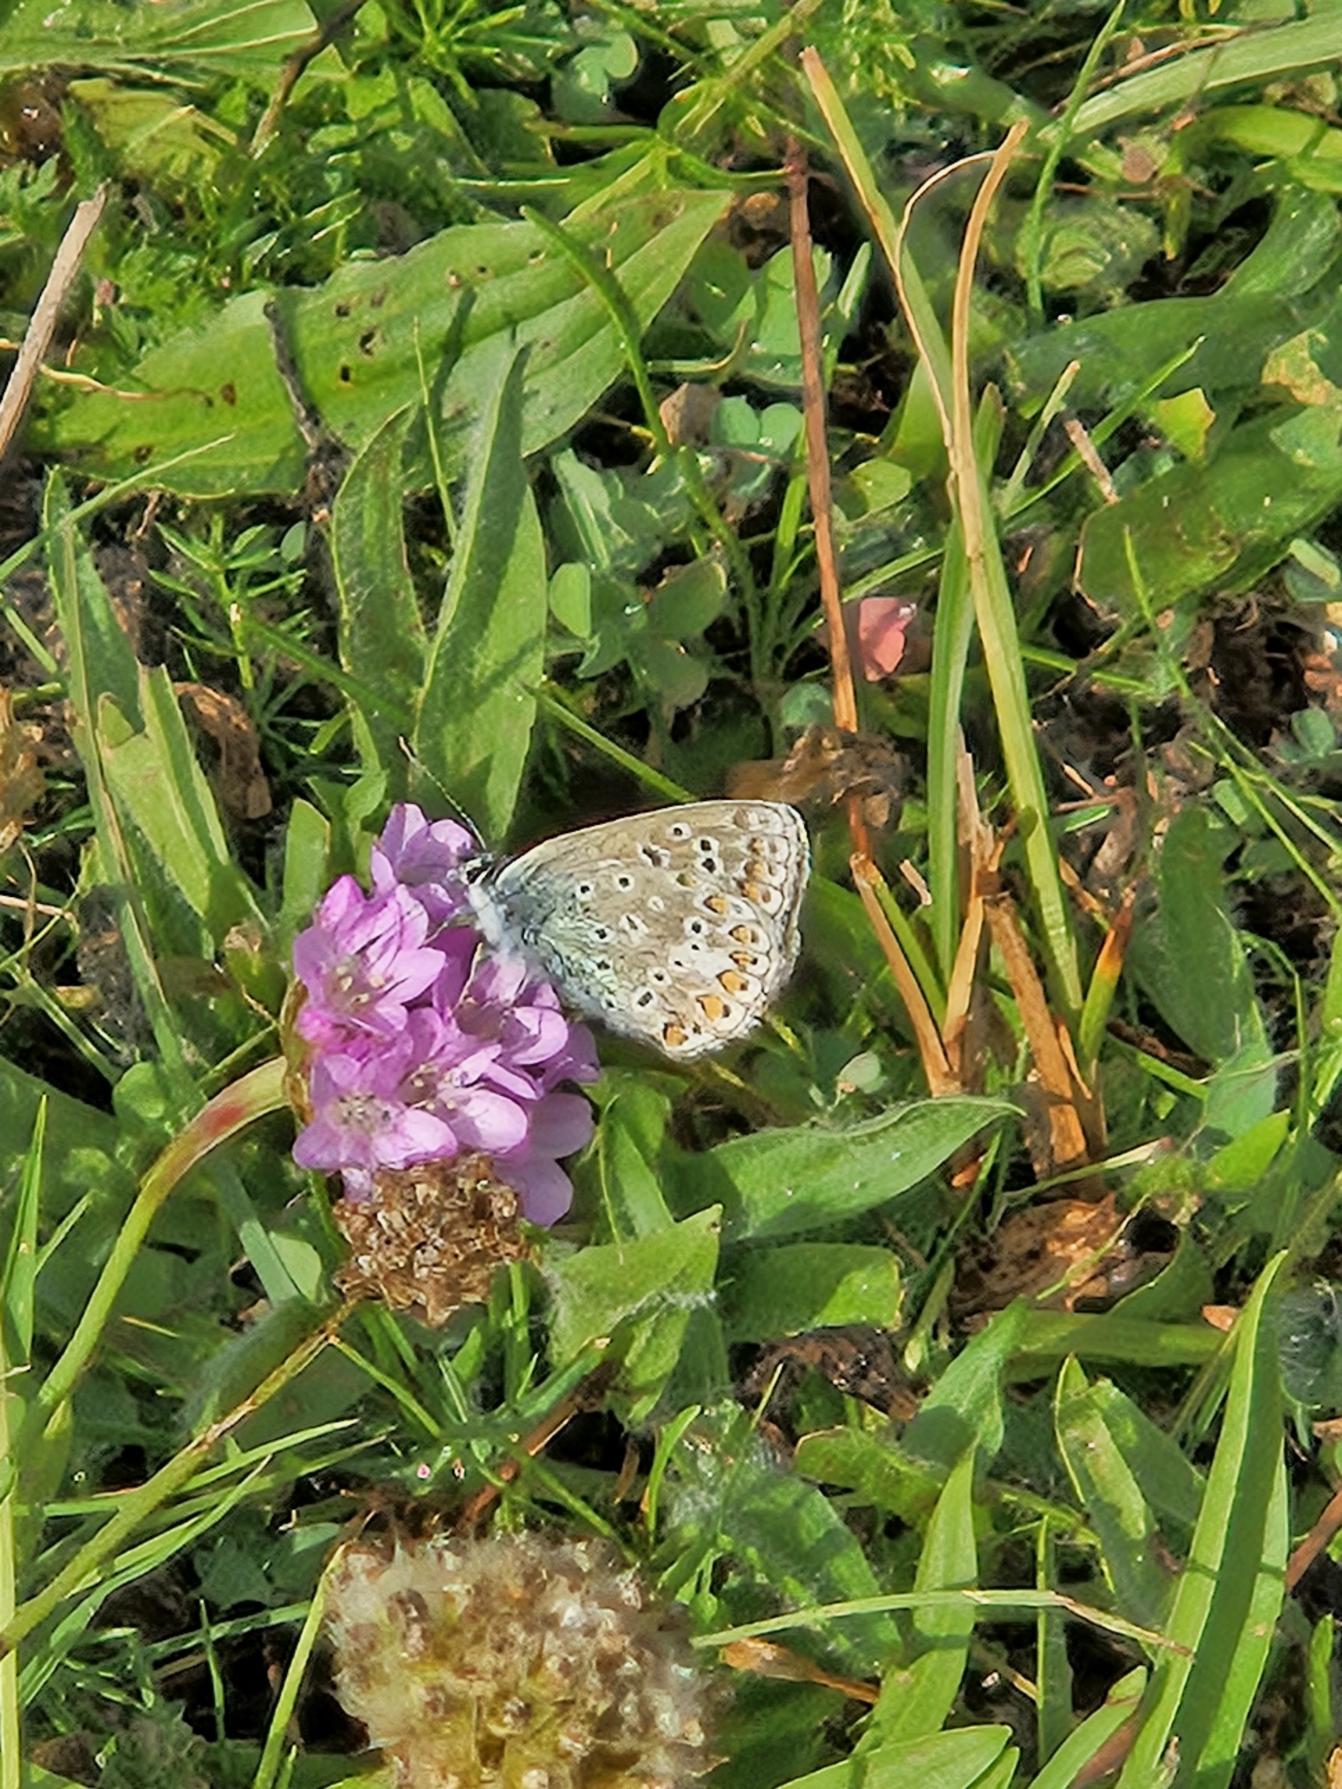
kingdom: Animalia
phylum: Arthropoda
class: Insecta
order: Lepidoptera
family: Lycaenidae
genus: Polyommatus
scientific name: Polyommatus icarus
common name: Almindelig blåfugl
